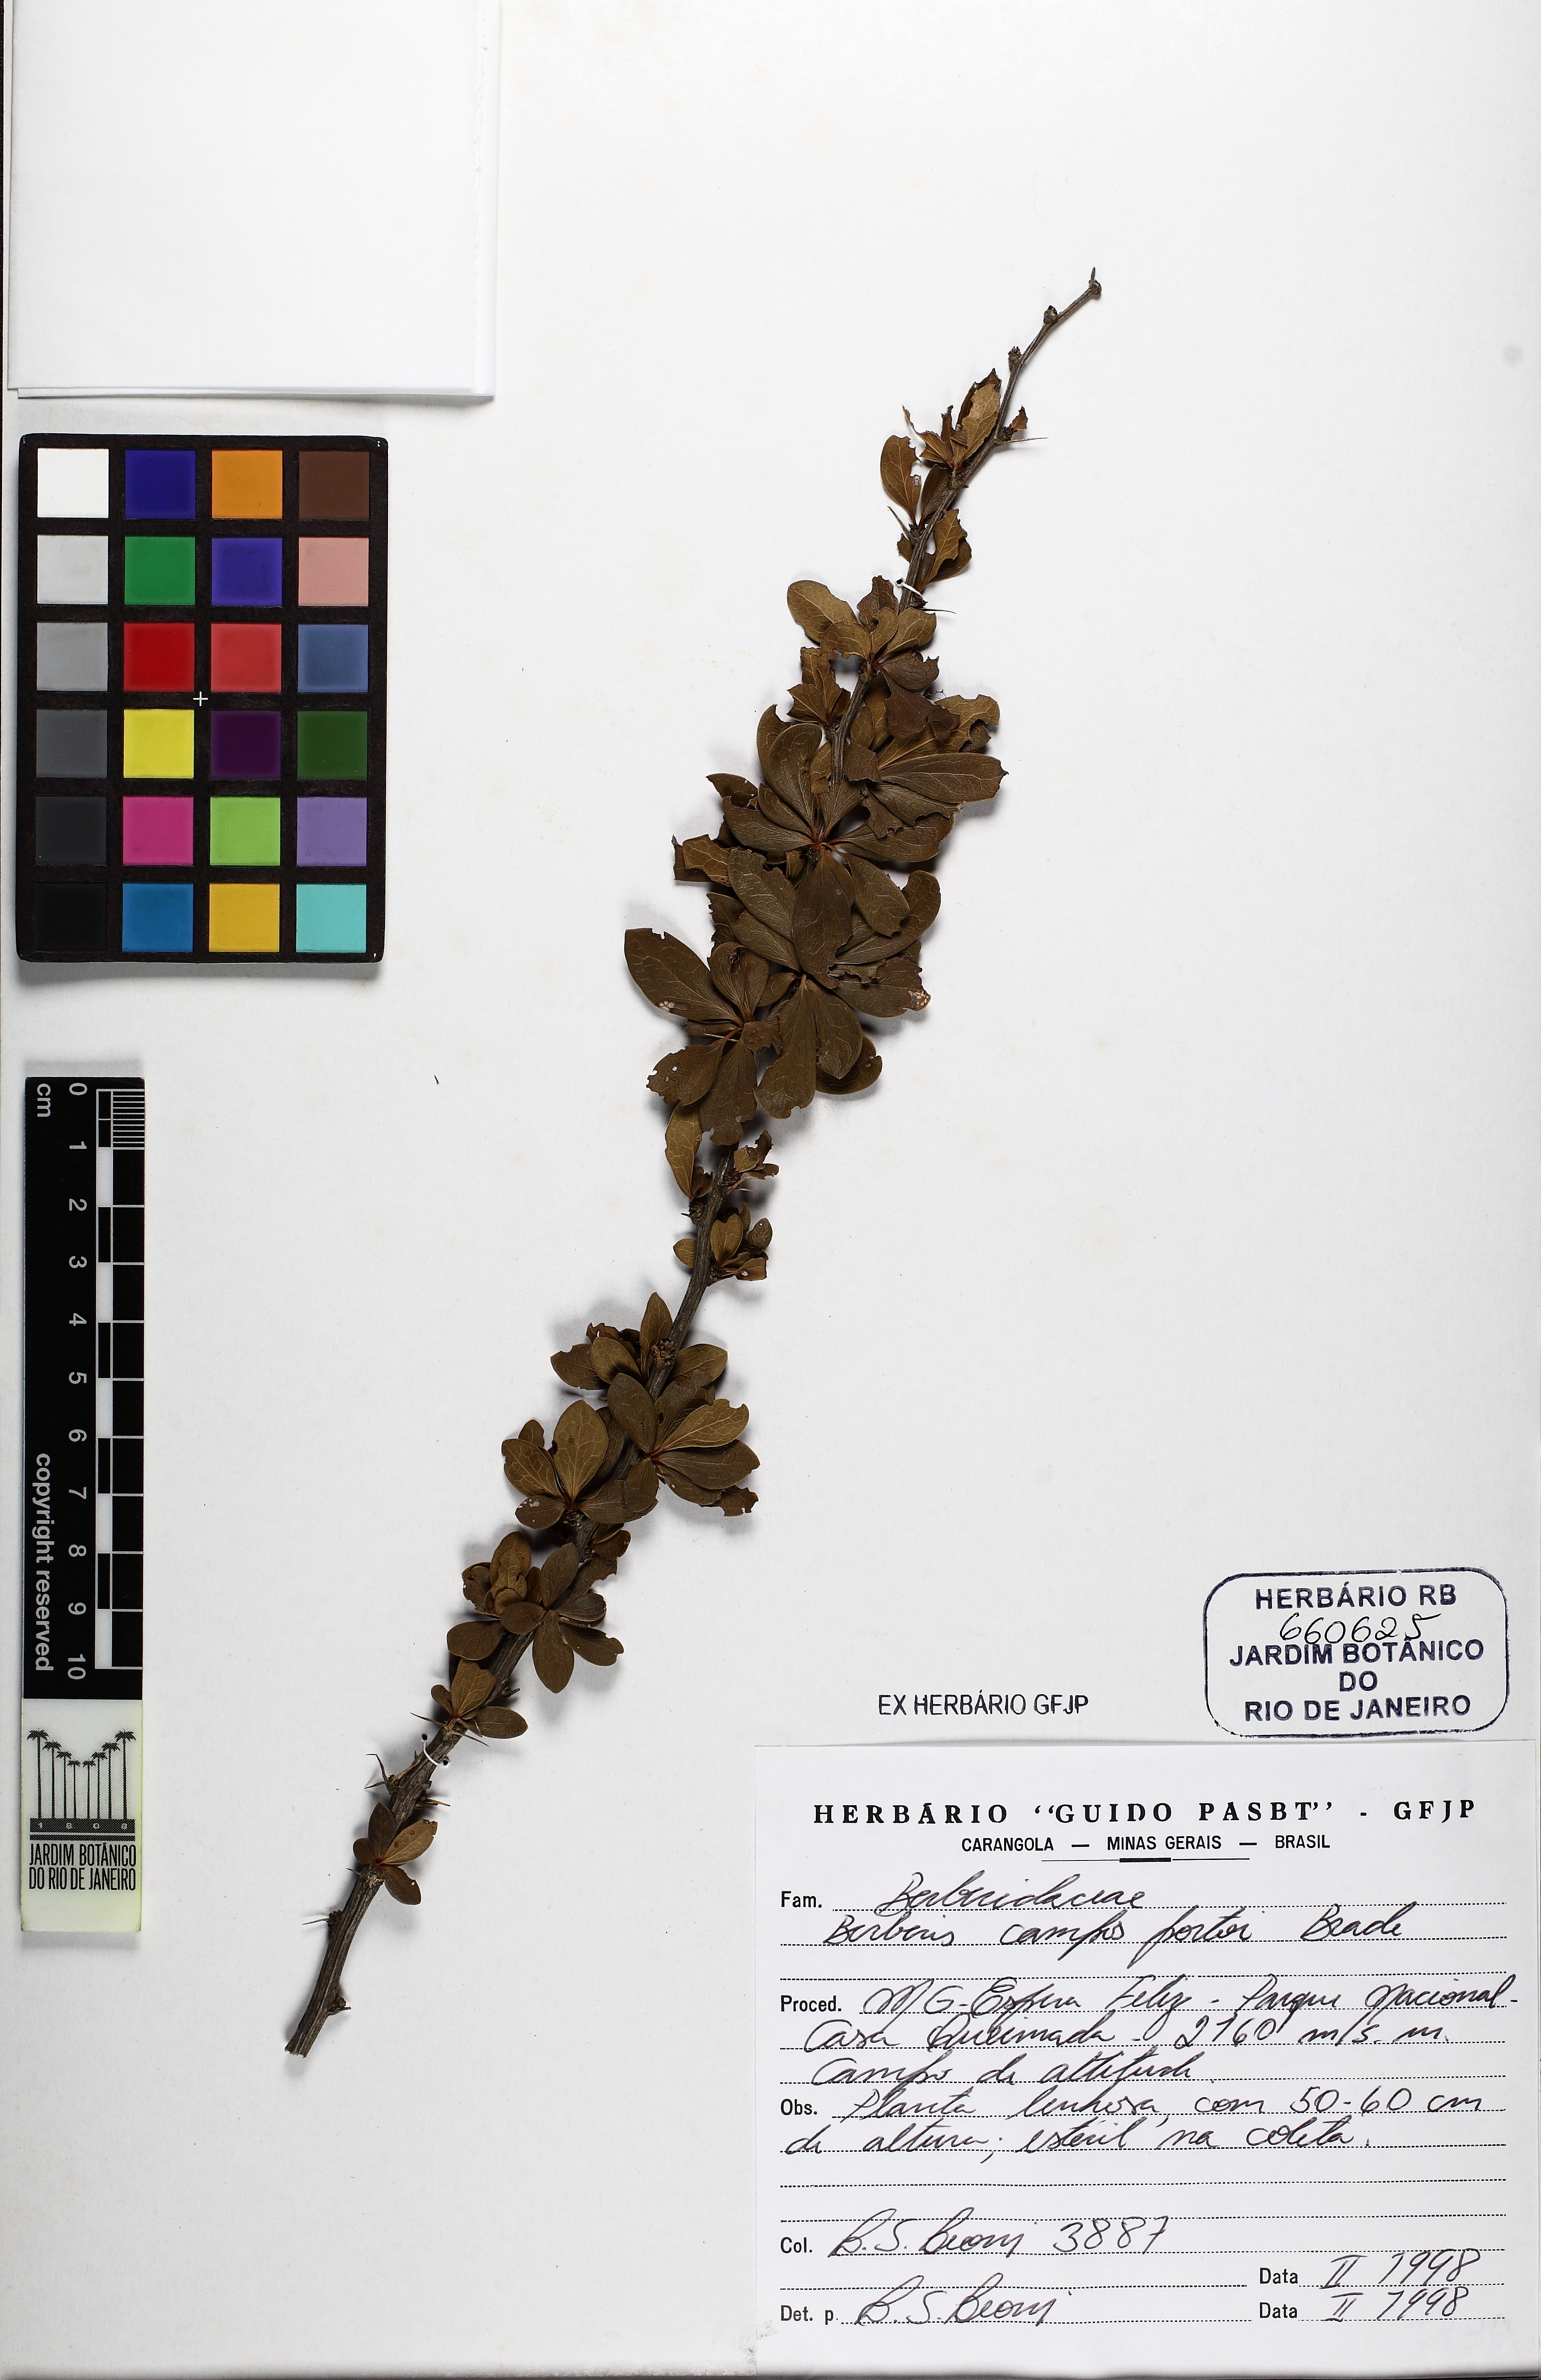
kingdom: Plantae
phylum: Tracheophyta
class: Magnoliopsida
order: Ranunculales
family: Berberidaceae
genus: Berberis
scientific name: Berberis campos-portoi
